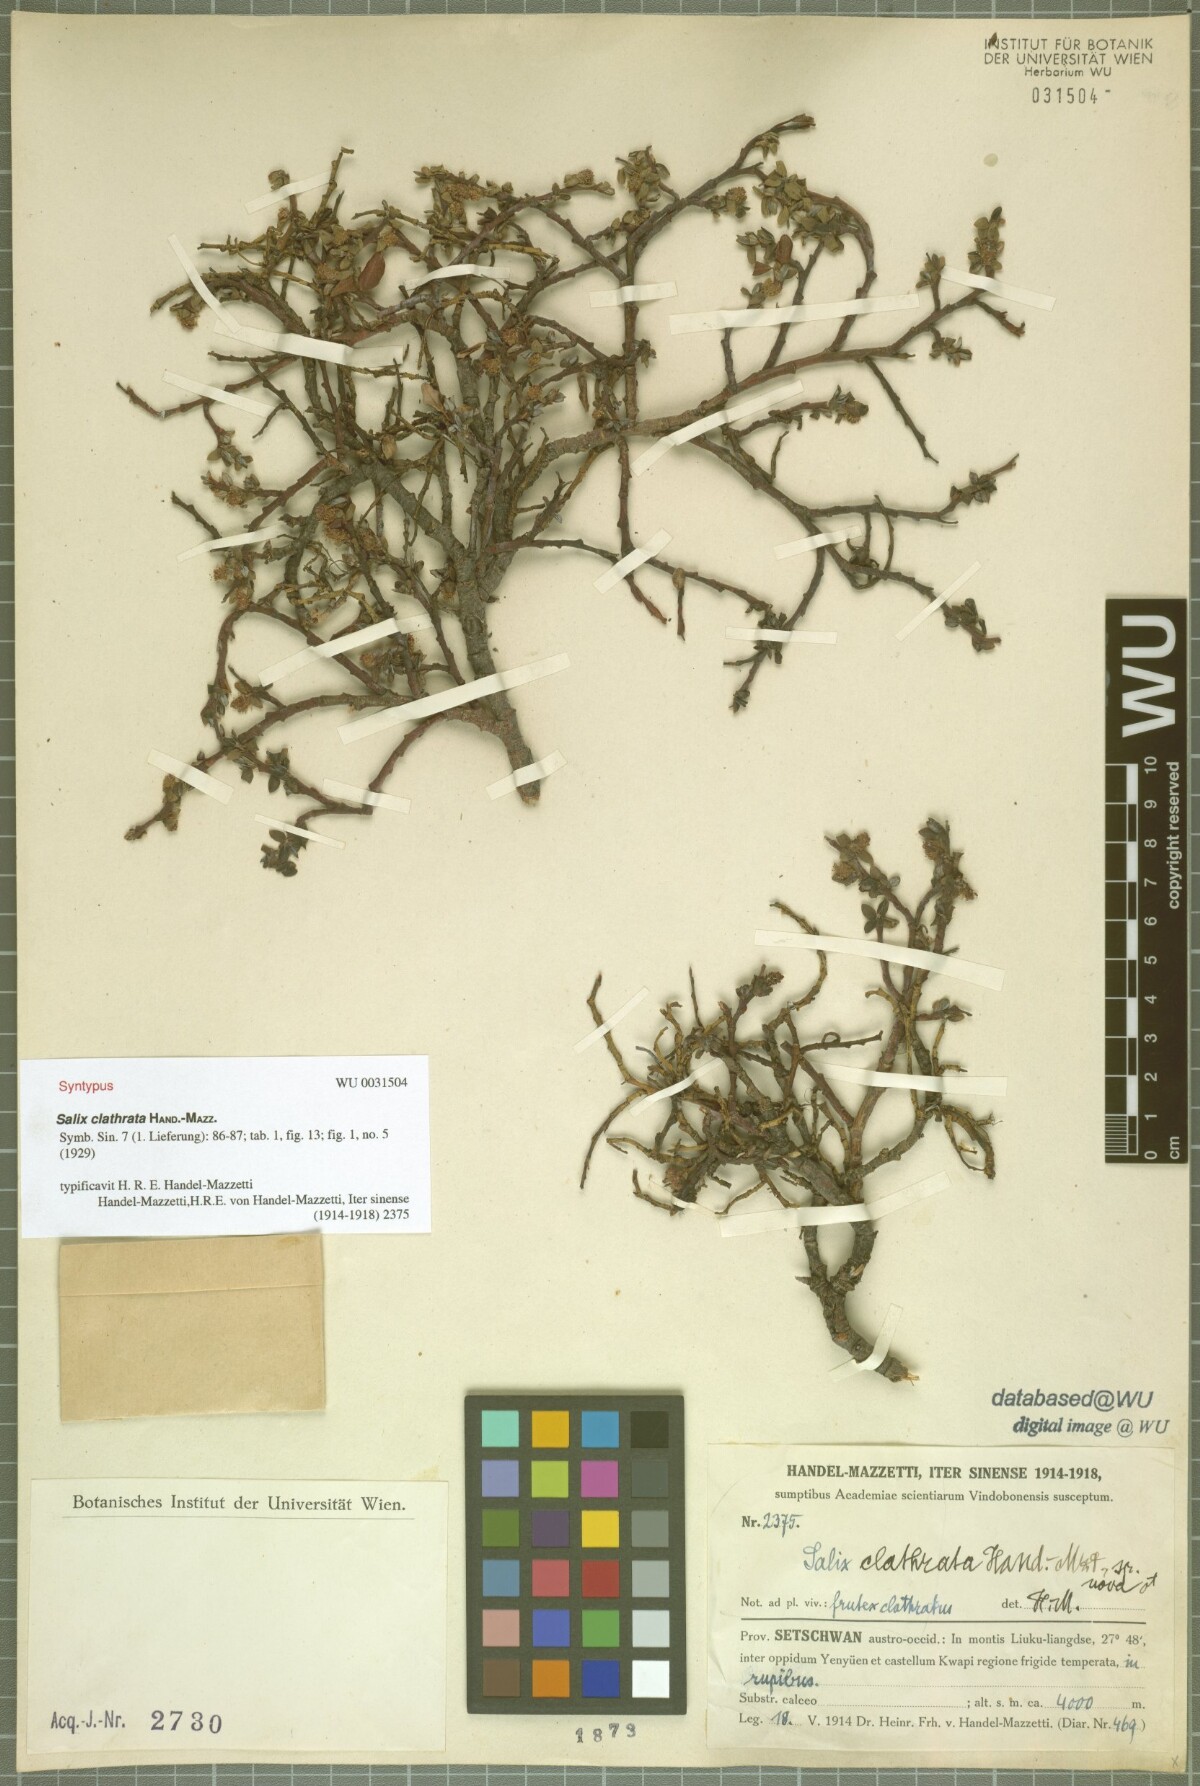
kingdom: Plantae
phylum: Tracheophyta
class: Magnoliopsida
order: Malpighiales
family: Salicaceae
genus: Salix
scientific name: Salix clathrata
